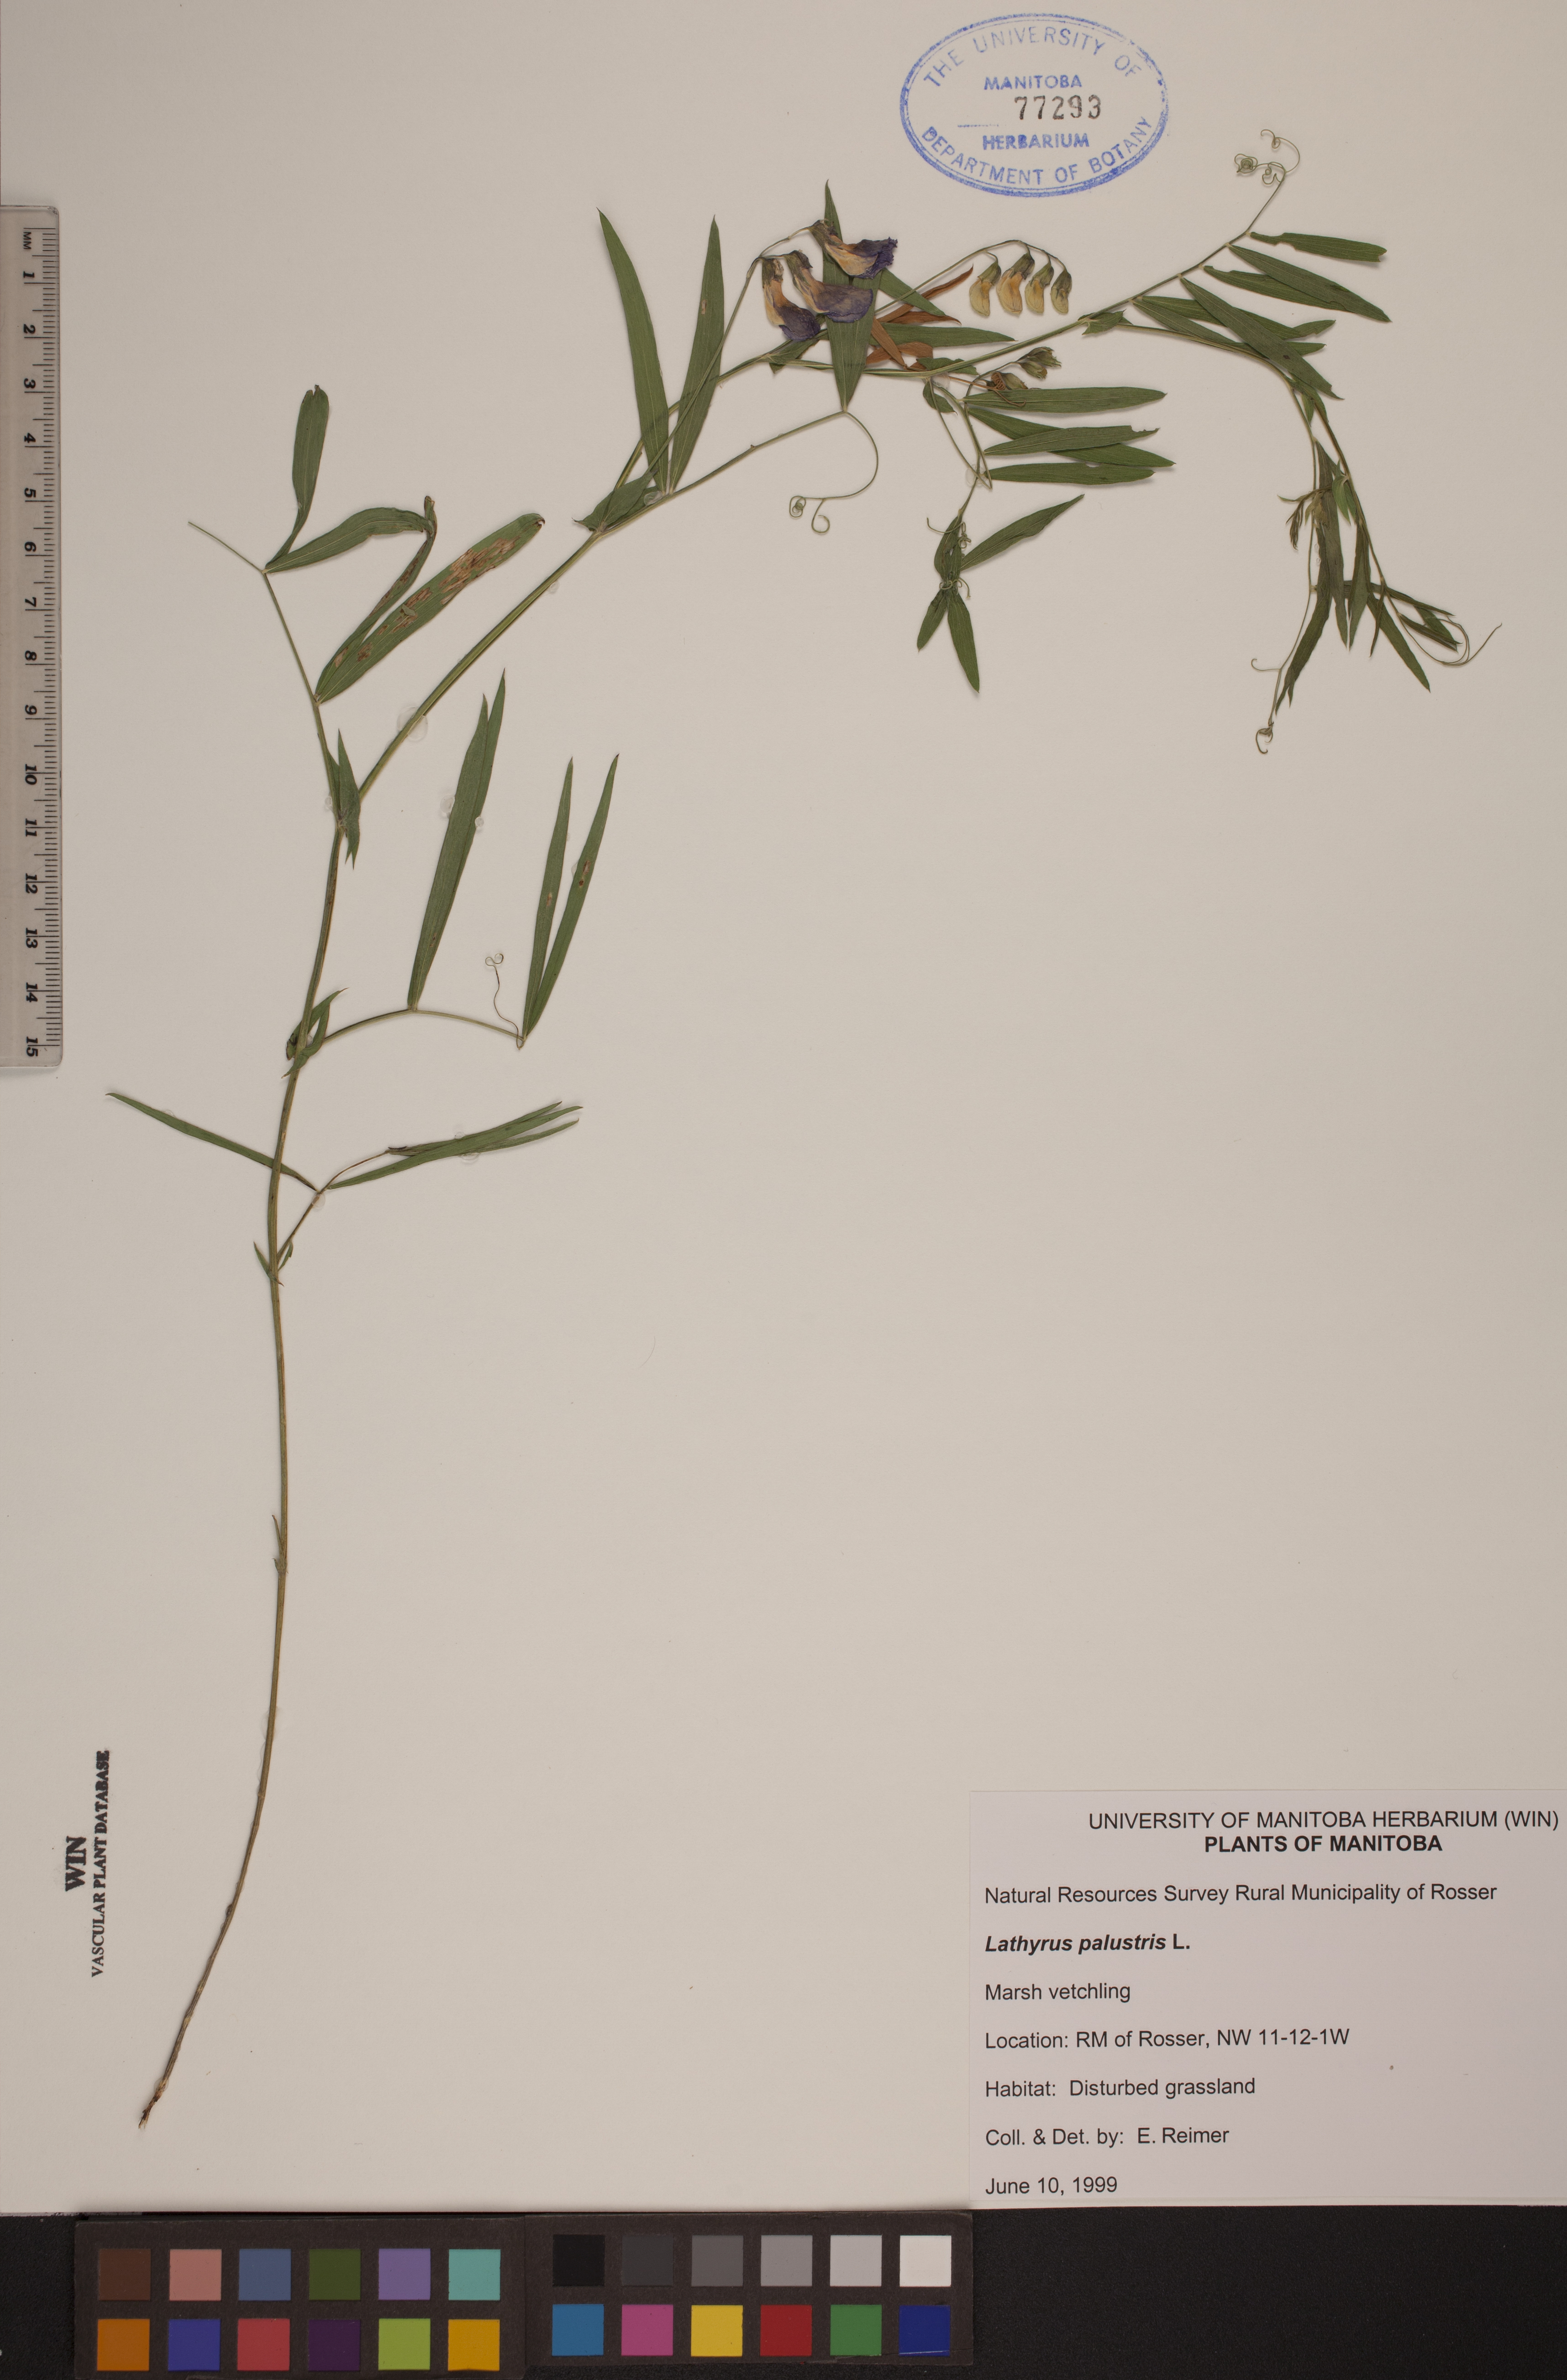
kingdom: Plantae
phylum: Tracheophyta
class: Magnoliopsida
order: Fabales
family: Fabaceae
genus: Lathyrus
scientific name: Lathyrus palustris
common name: Marsh pea
